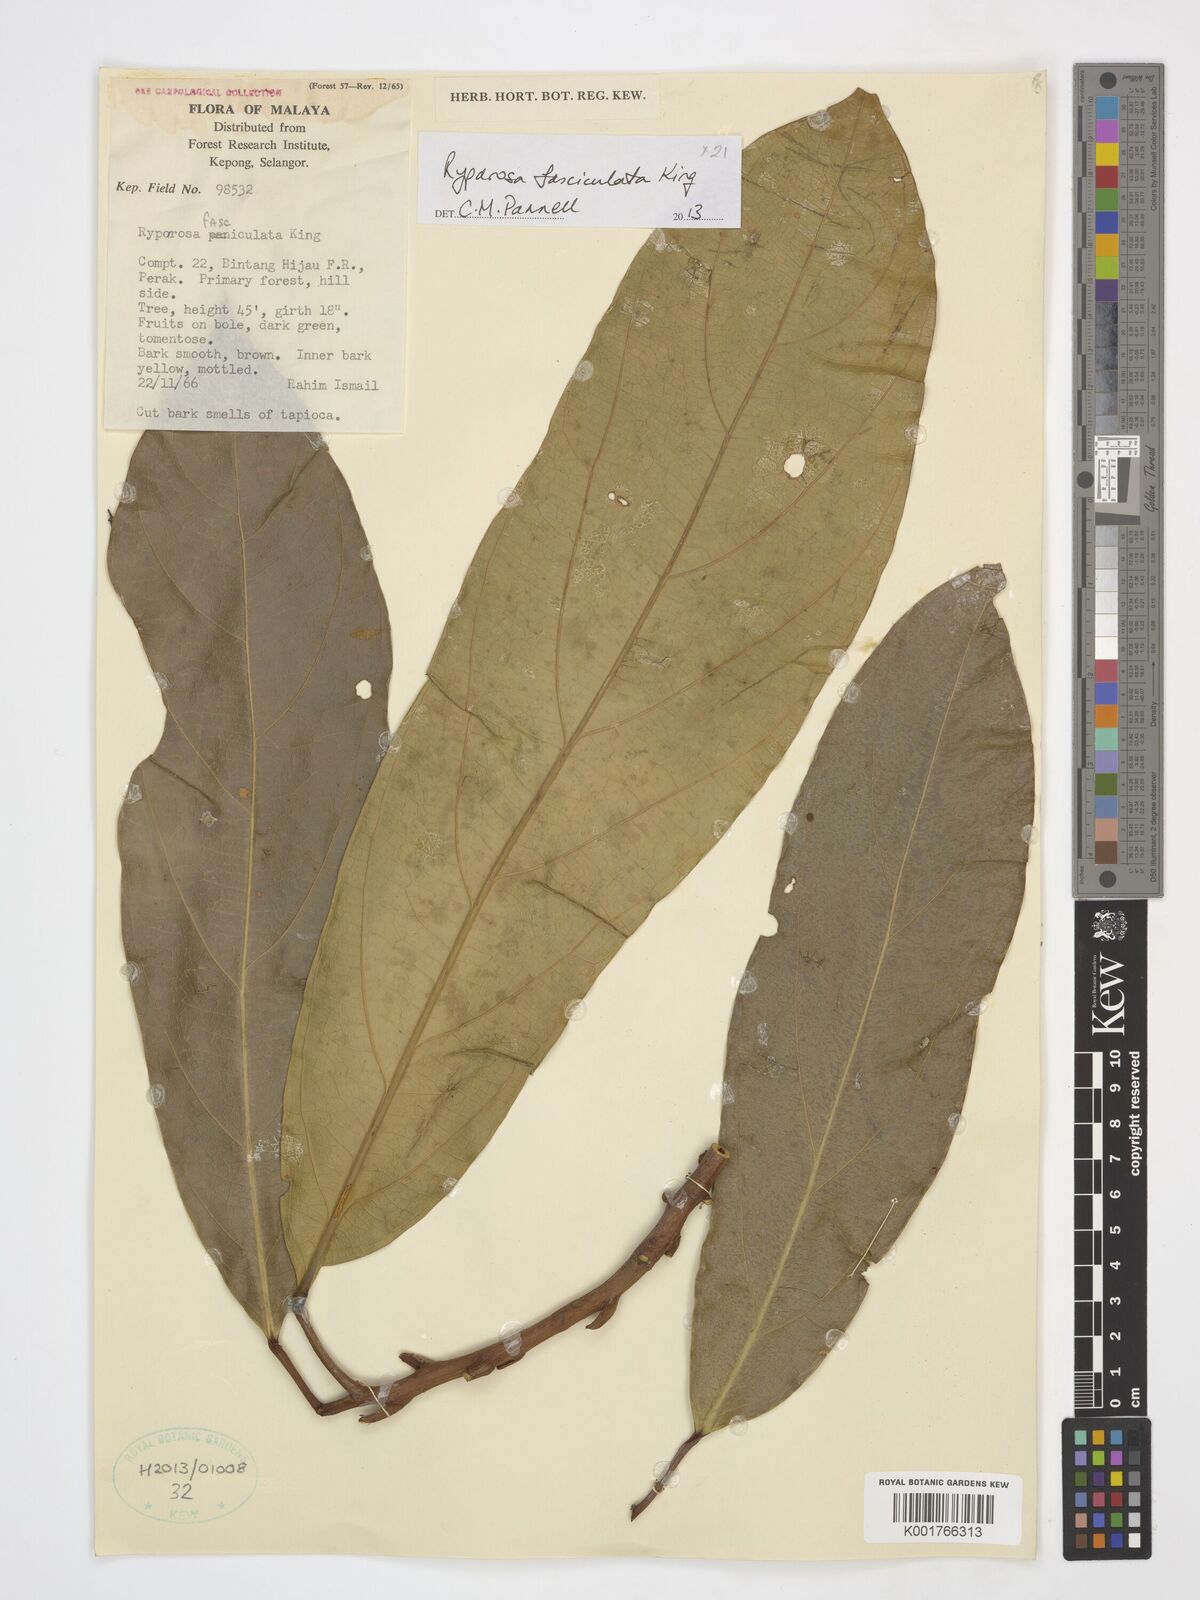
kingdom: Plantae
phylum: Tracheophyta
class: Magnoliopsida
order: Malpighiales
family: Achariaceae
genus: Ryparosa
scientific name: Ryparosa fasciculata
